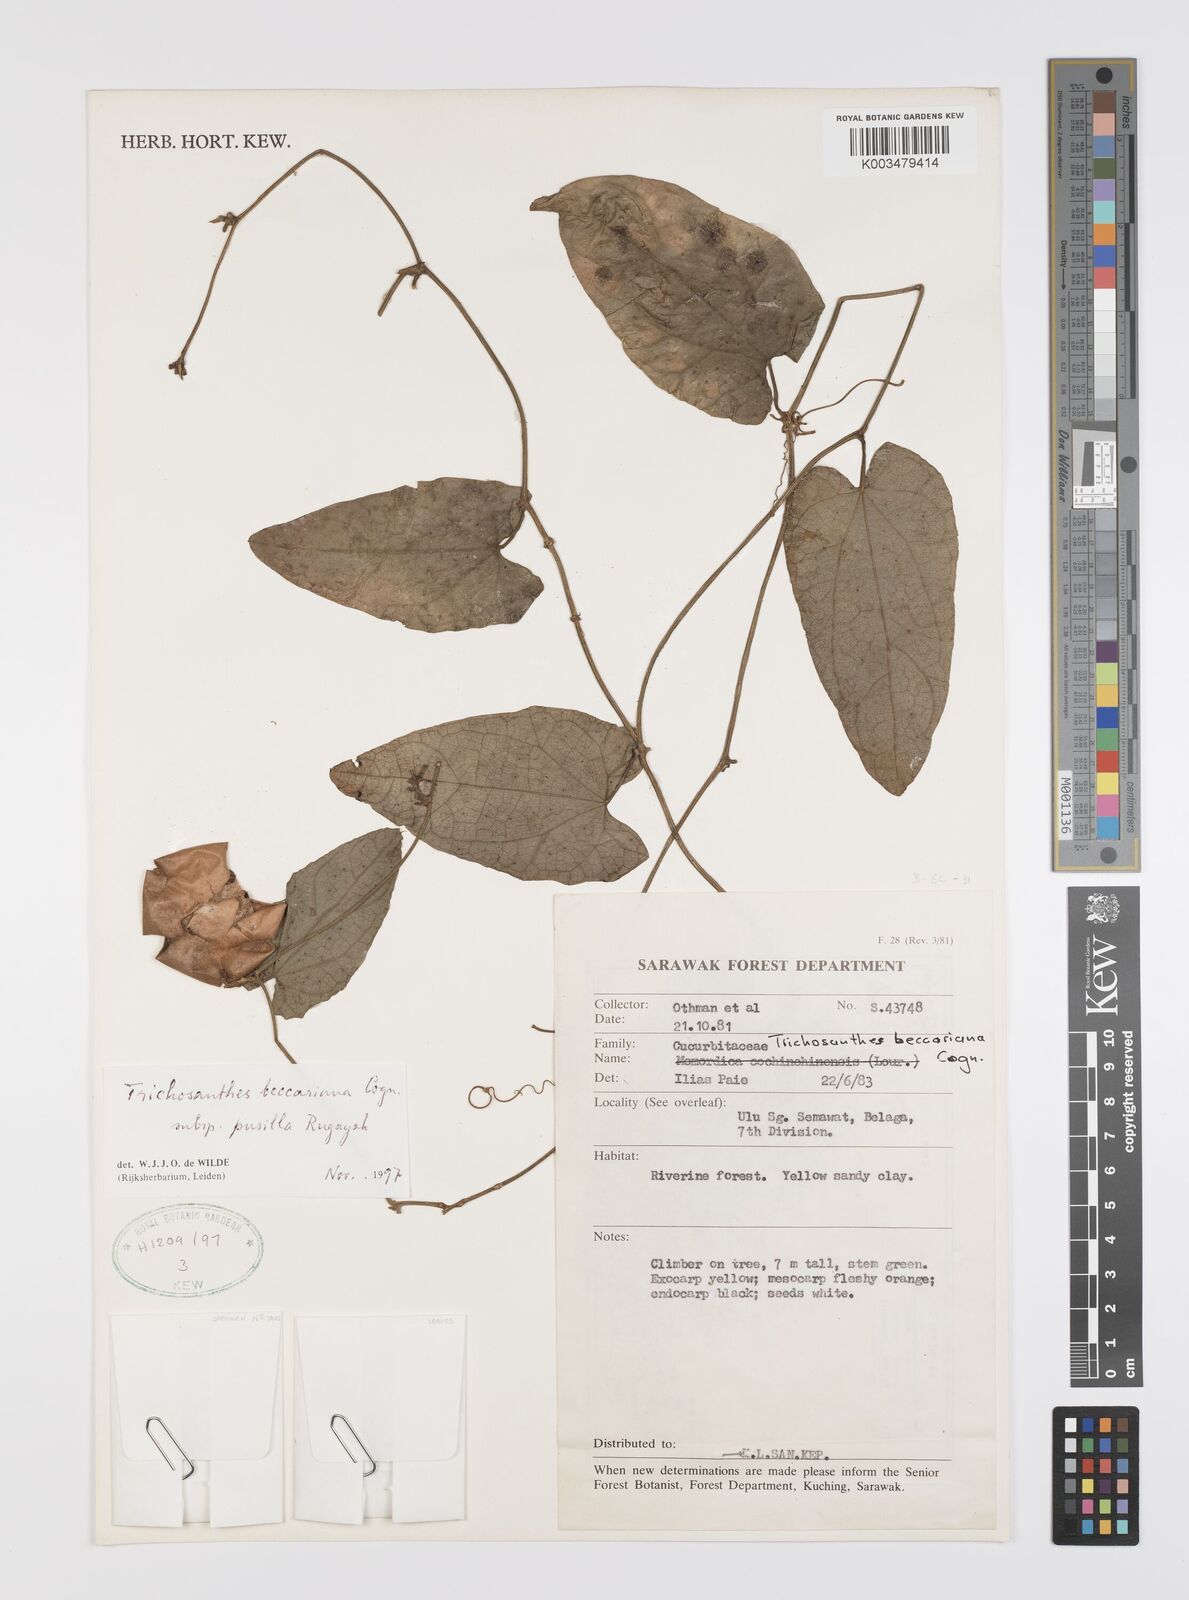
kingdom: Plantae
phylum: Tracheophyta
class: Magnoliopsida
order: Cucurbitales
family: Cucurbitaceae
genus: Trichosanthes
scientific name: Trichosanthes beccariana
